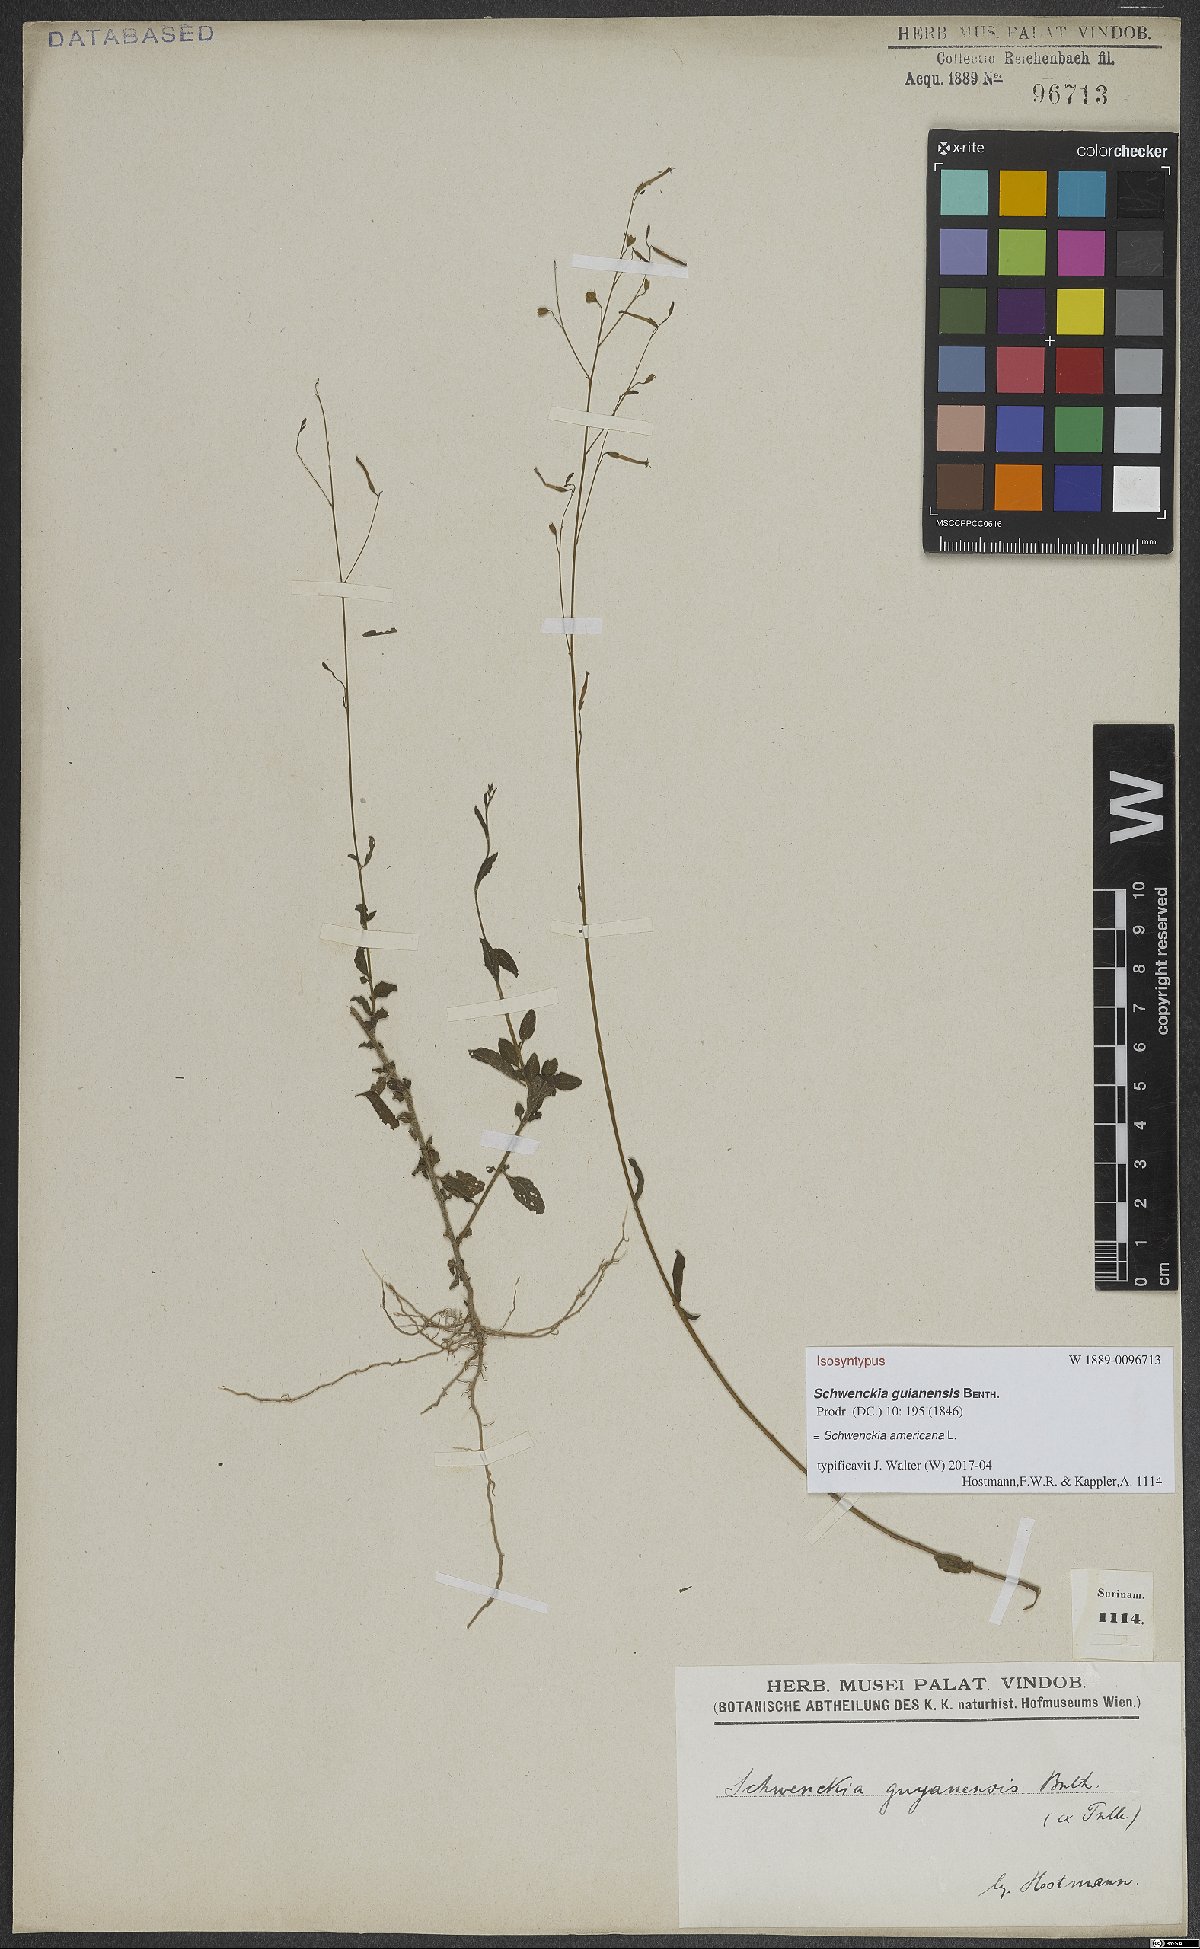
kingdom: Plantae
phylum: Tracheophyta
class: Magnoliopsida
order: Solanales
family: Solanaceae
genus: Schwenckia
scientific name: Schwenckia americana
